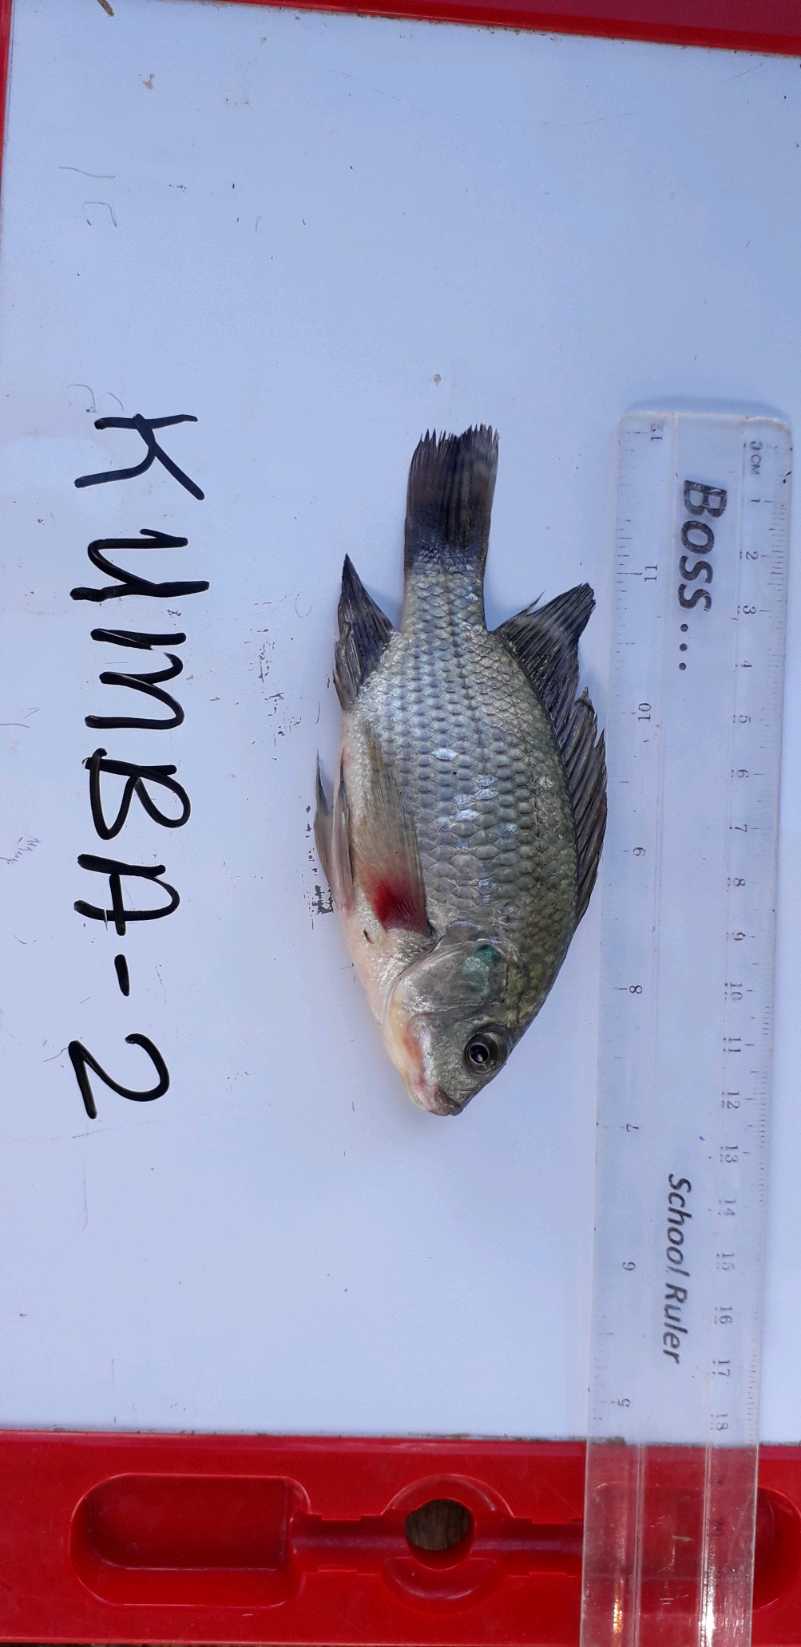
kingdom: Animalia
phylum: Chordata
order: Perciformes
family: Cichlidae
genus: Oreochromis
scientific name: Oreochromis niloticus
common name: Nile tilapia
